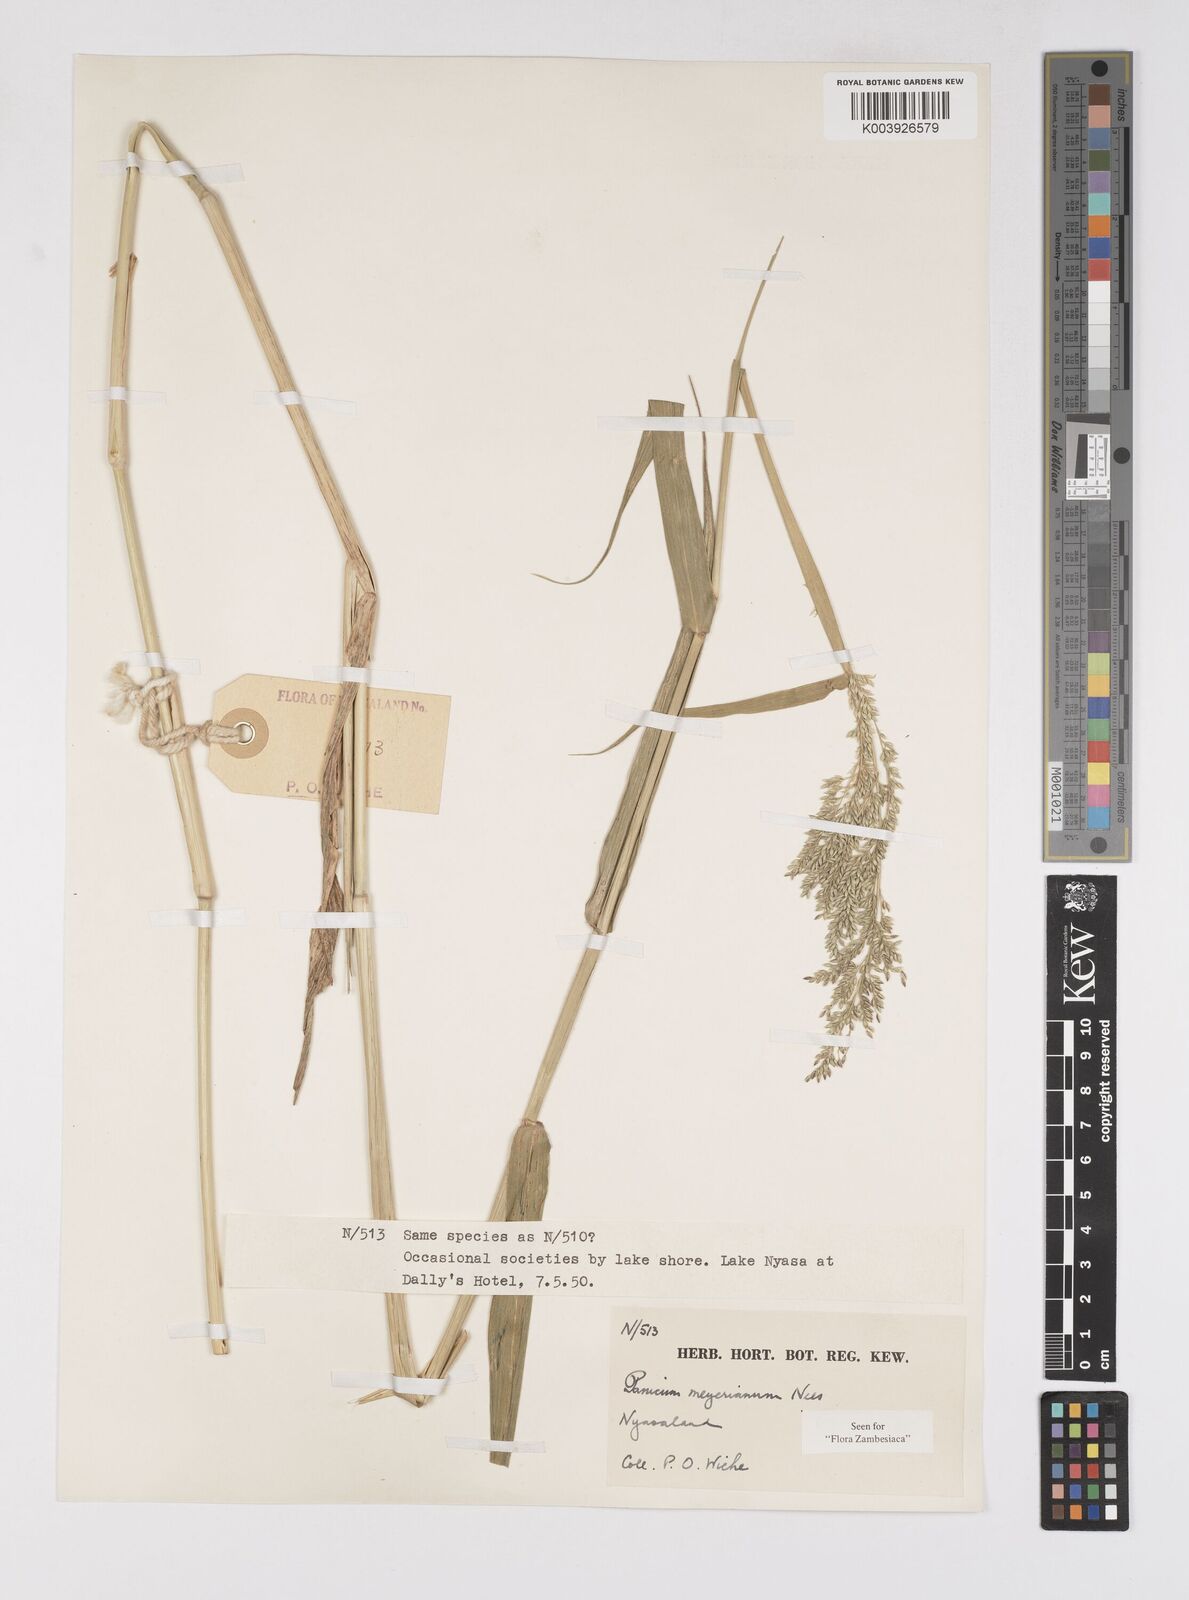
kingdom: Plantae
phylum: Tracheophyta
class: Liliopsida
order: Poales
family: Poaceae
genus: Eriochloa
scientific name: Eriochloa meyeriana
